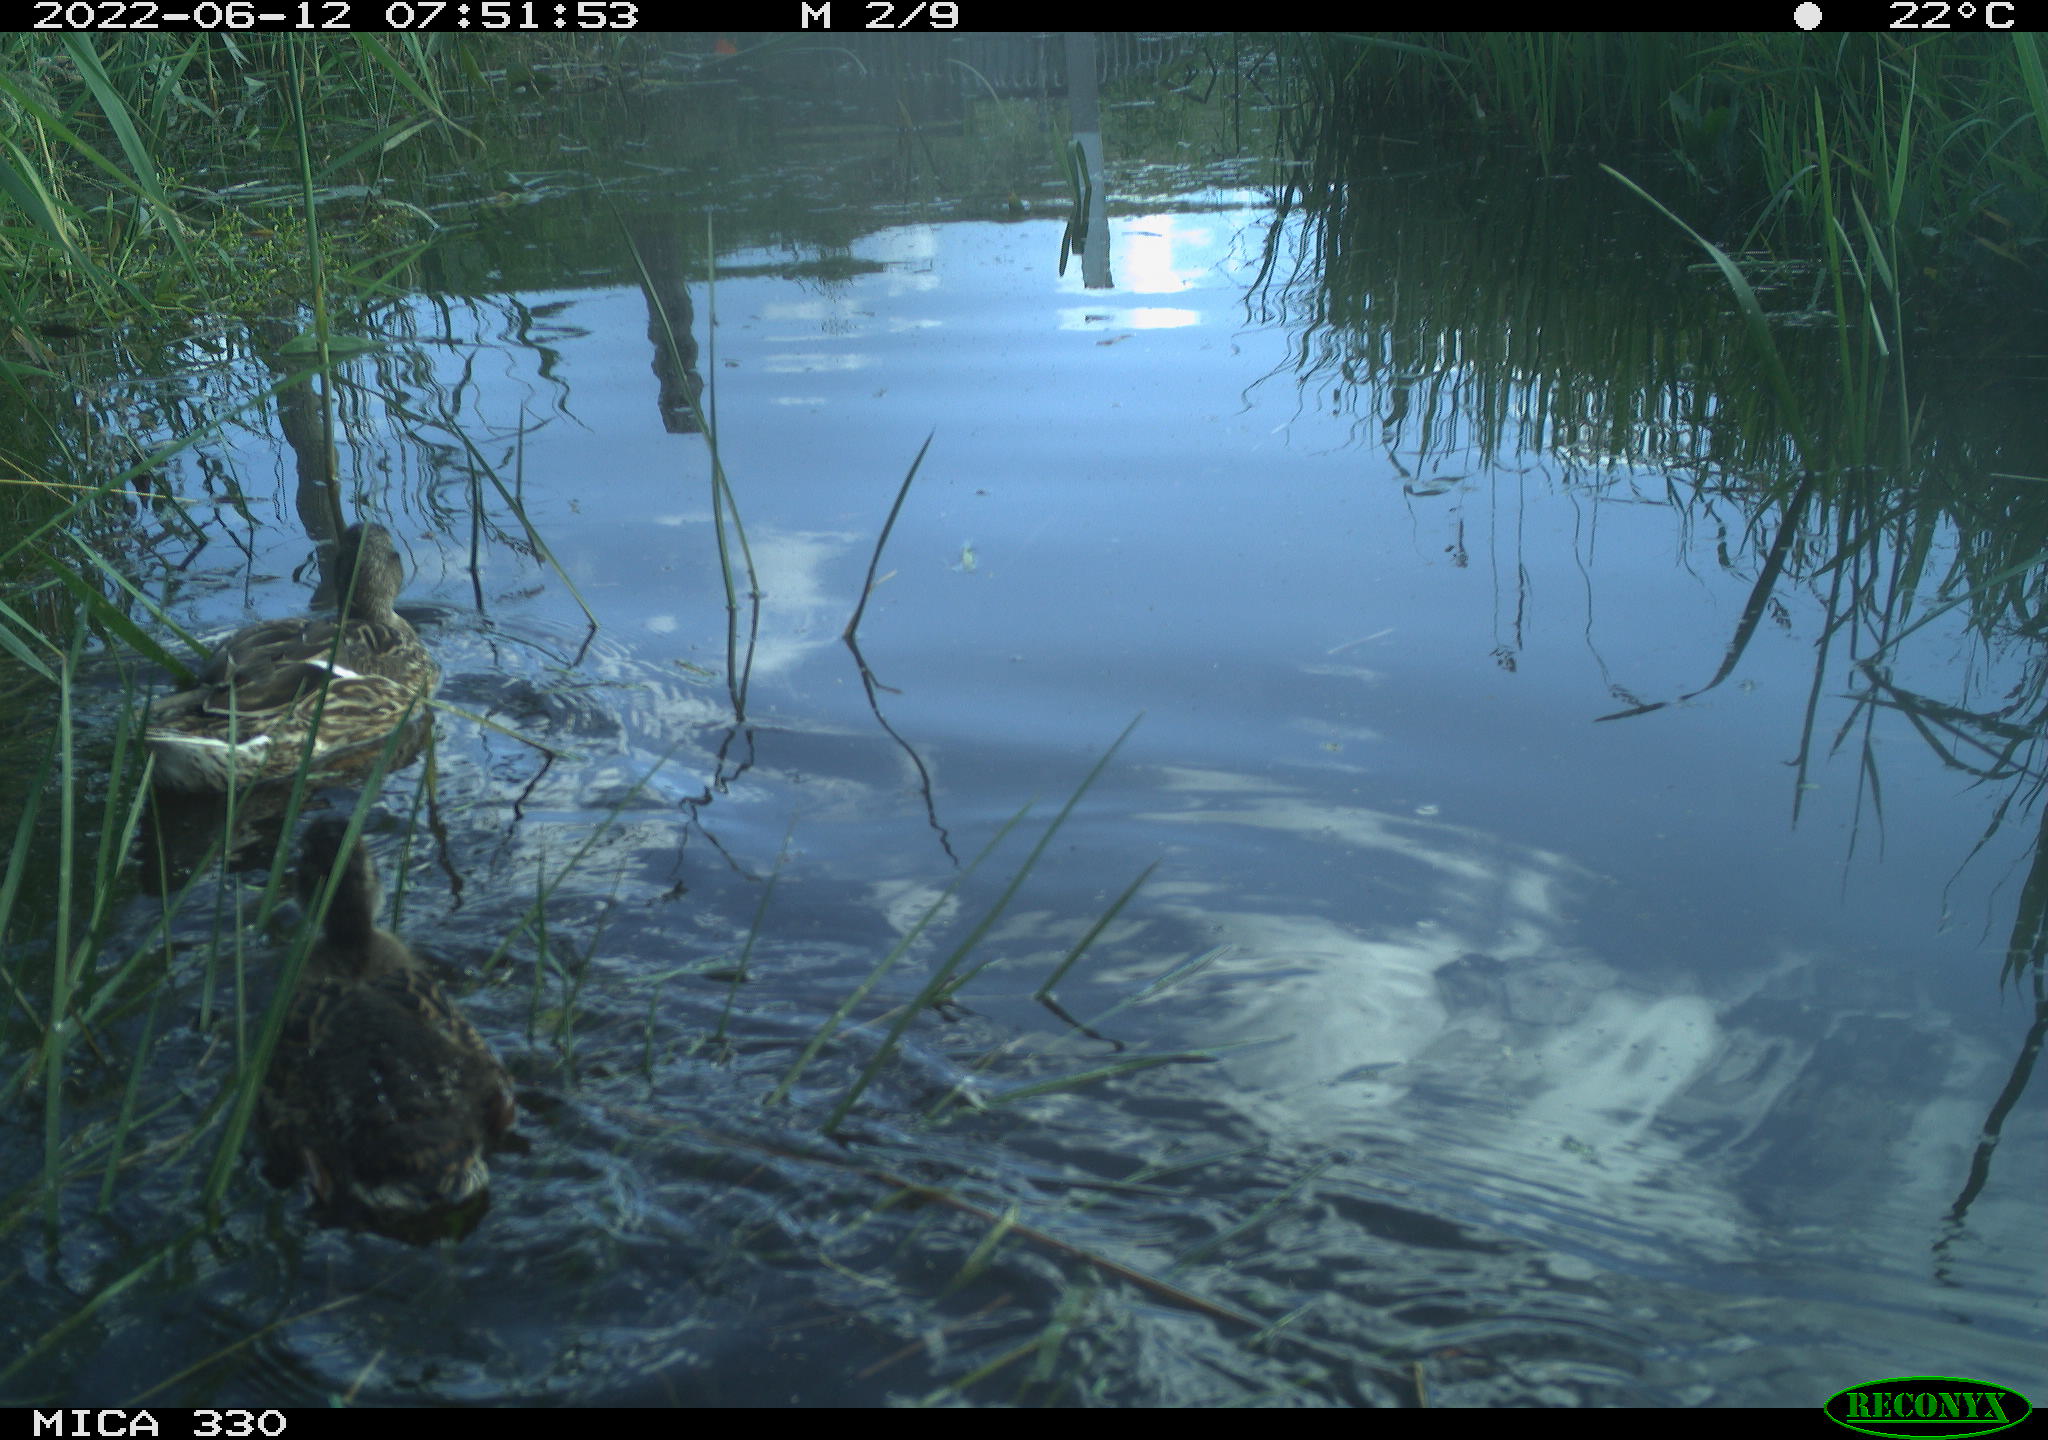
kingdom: Animalia
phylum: Chordata
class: Aves
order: Anseriformes
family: Anatidae
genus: Anas
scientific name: Anas platyrhynchos
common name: Mallard
